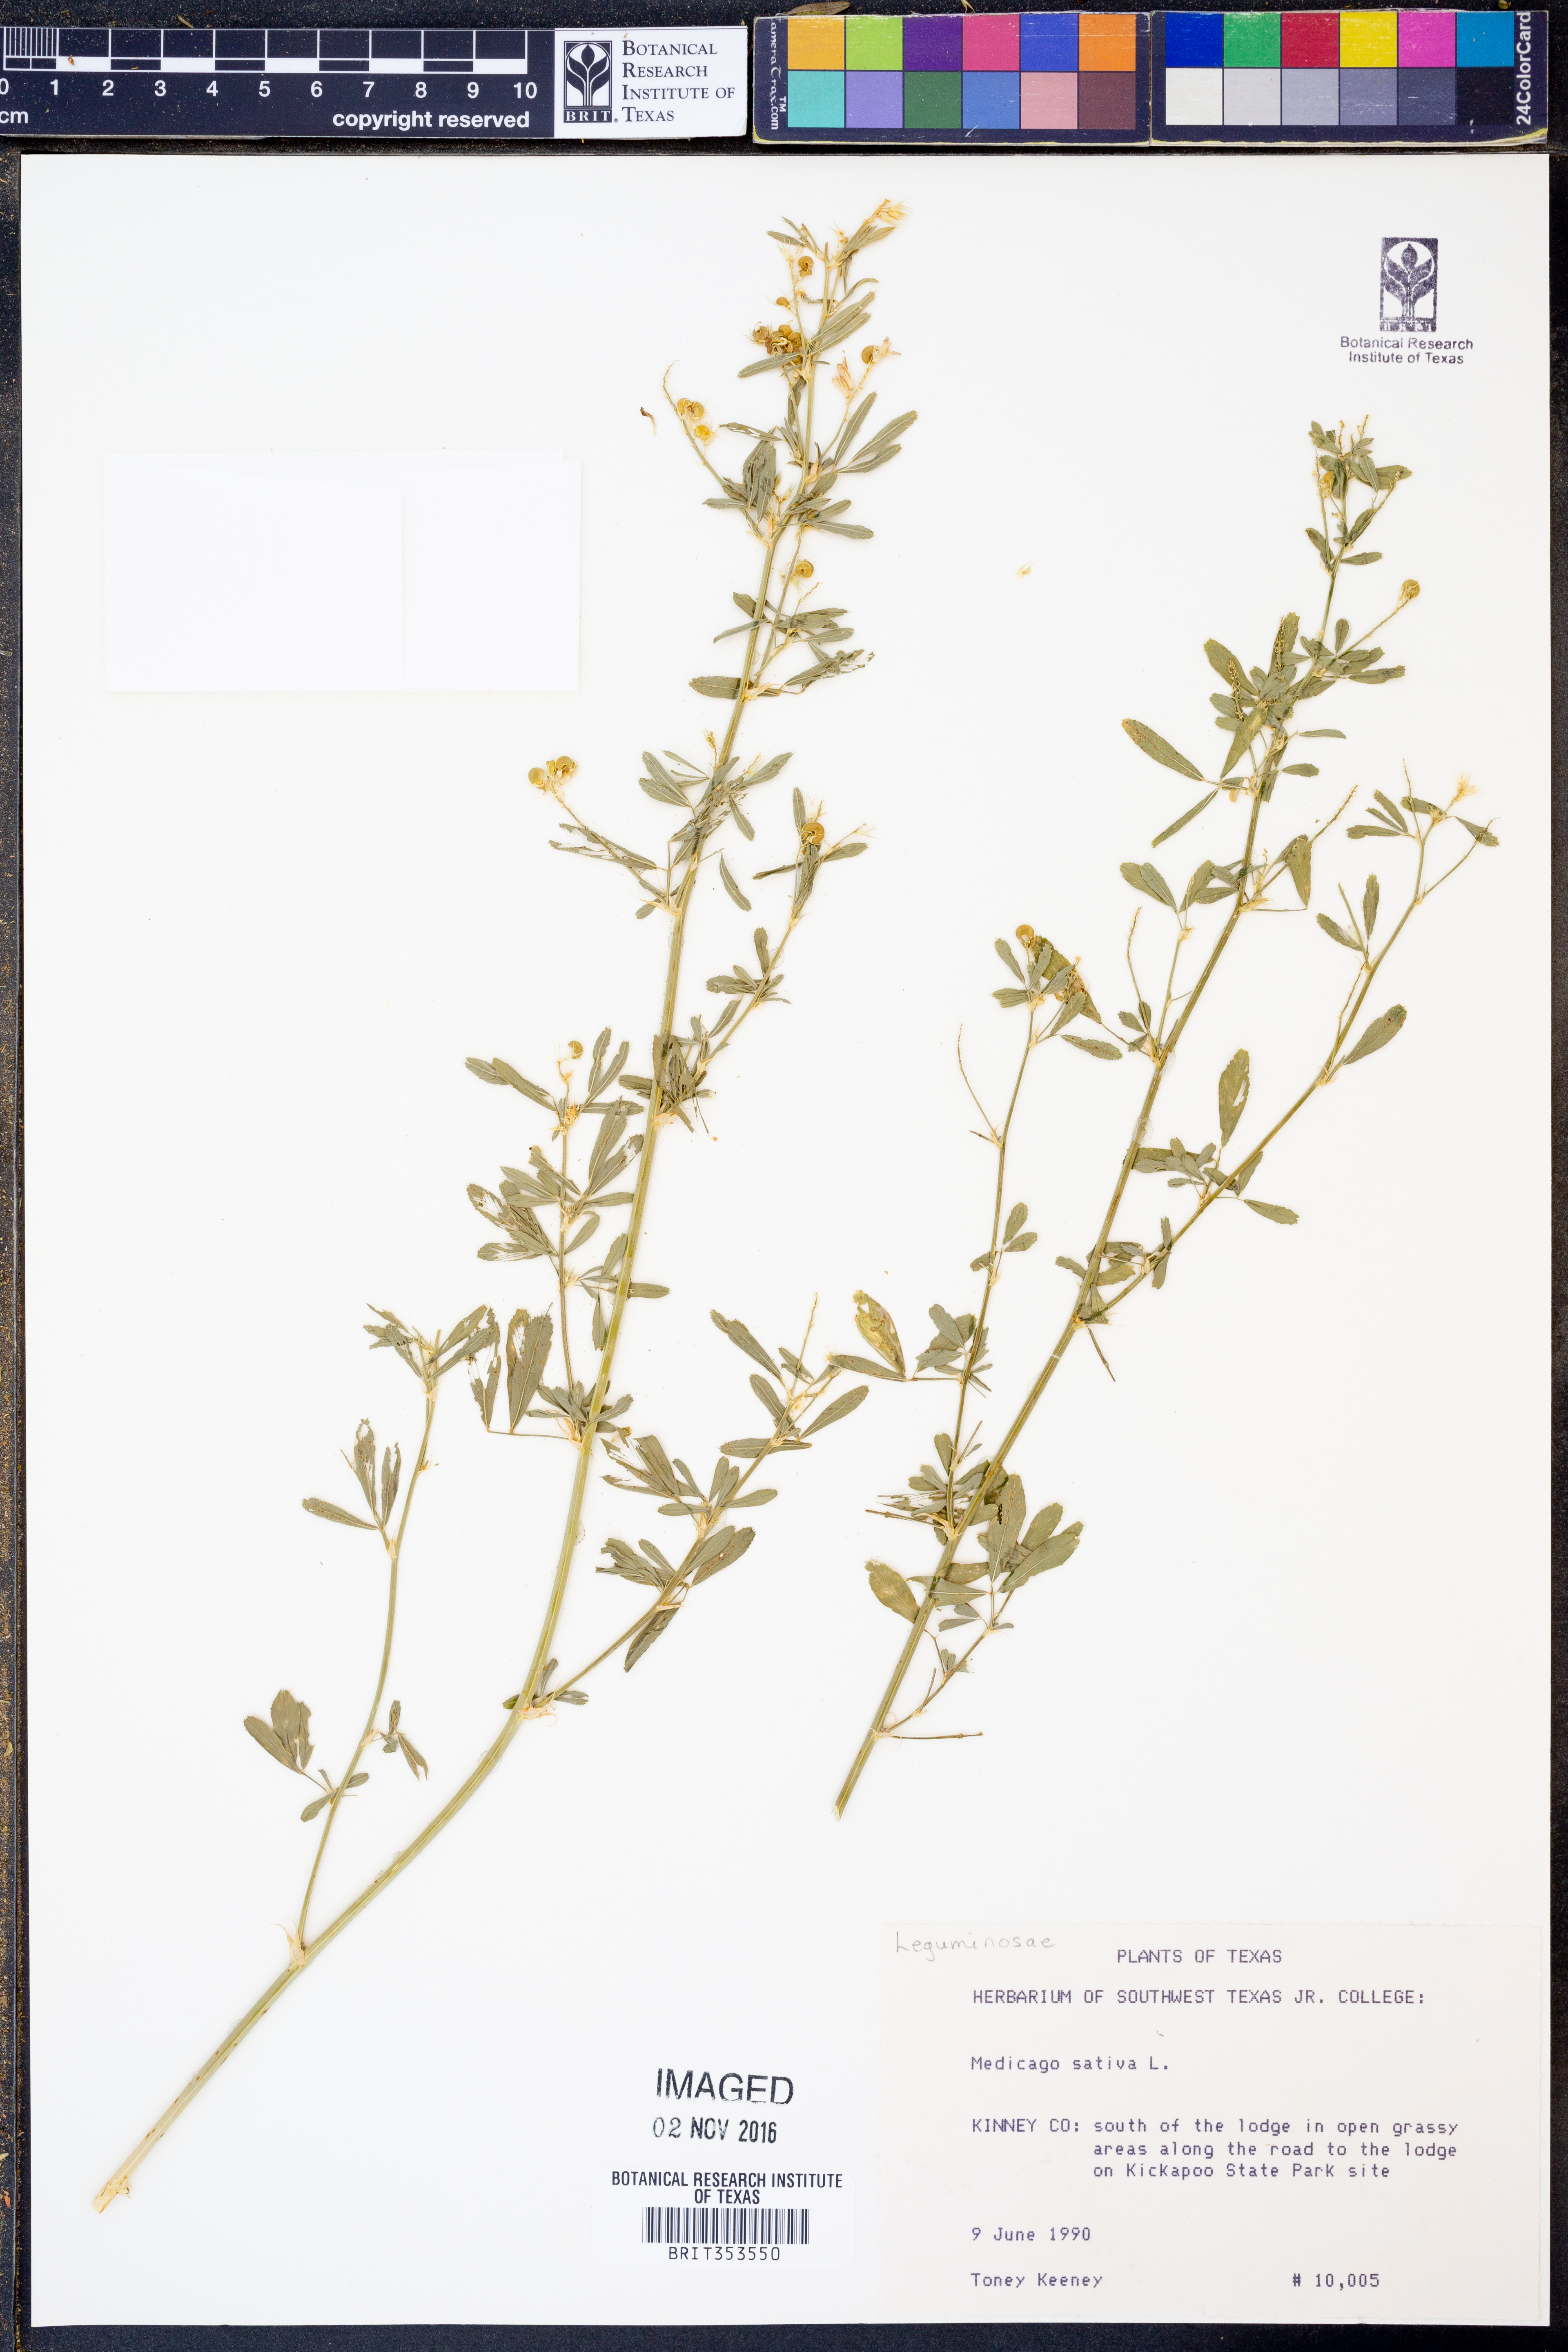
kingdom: Plantae
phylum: Tracheophyta
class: Magnoliopsida
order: Fabales
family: Fabaceae
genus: Medicago
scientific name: Medicago sativa
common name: Alfalfa
